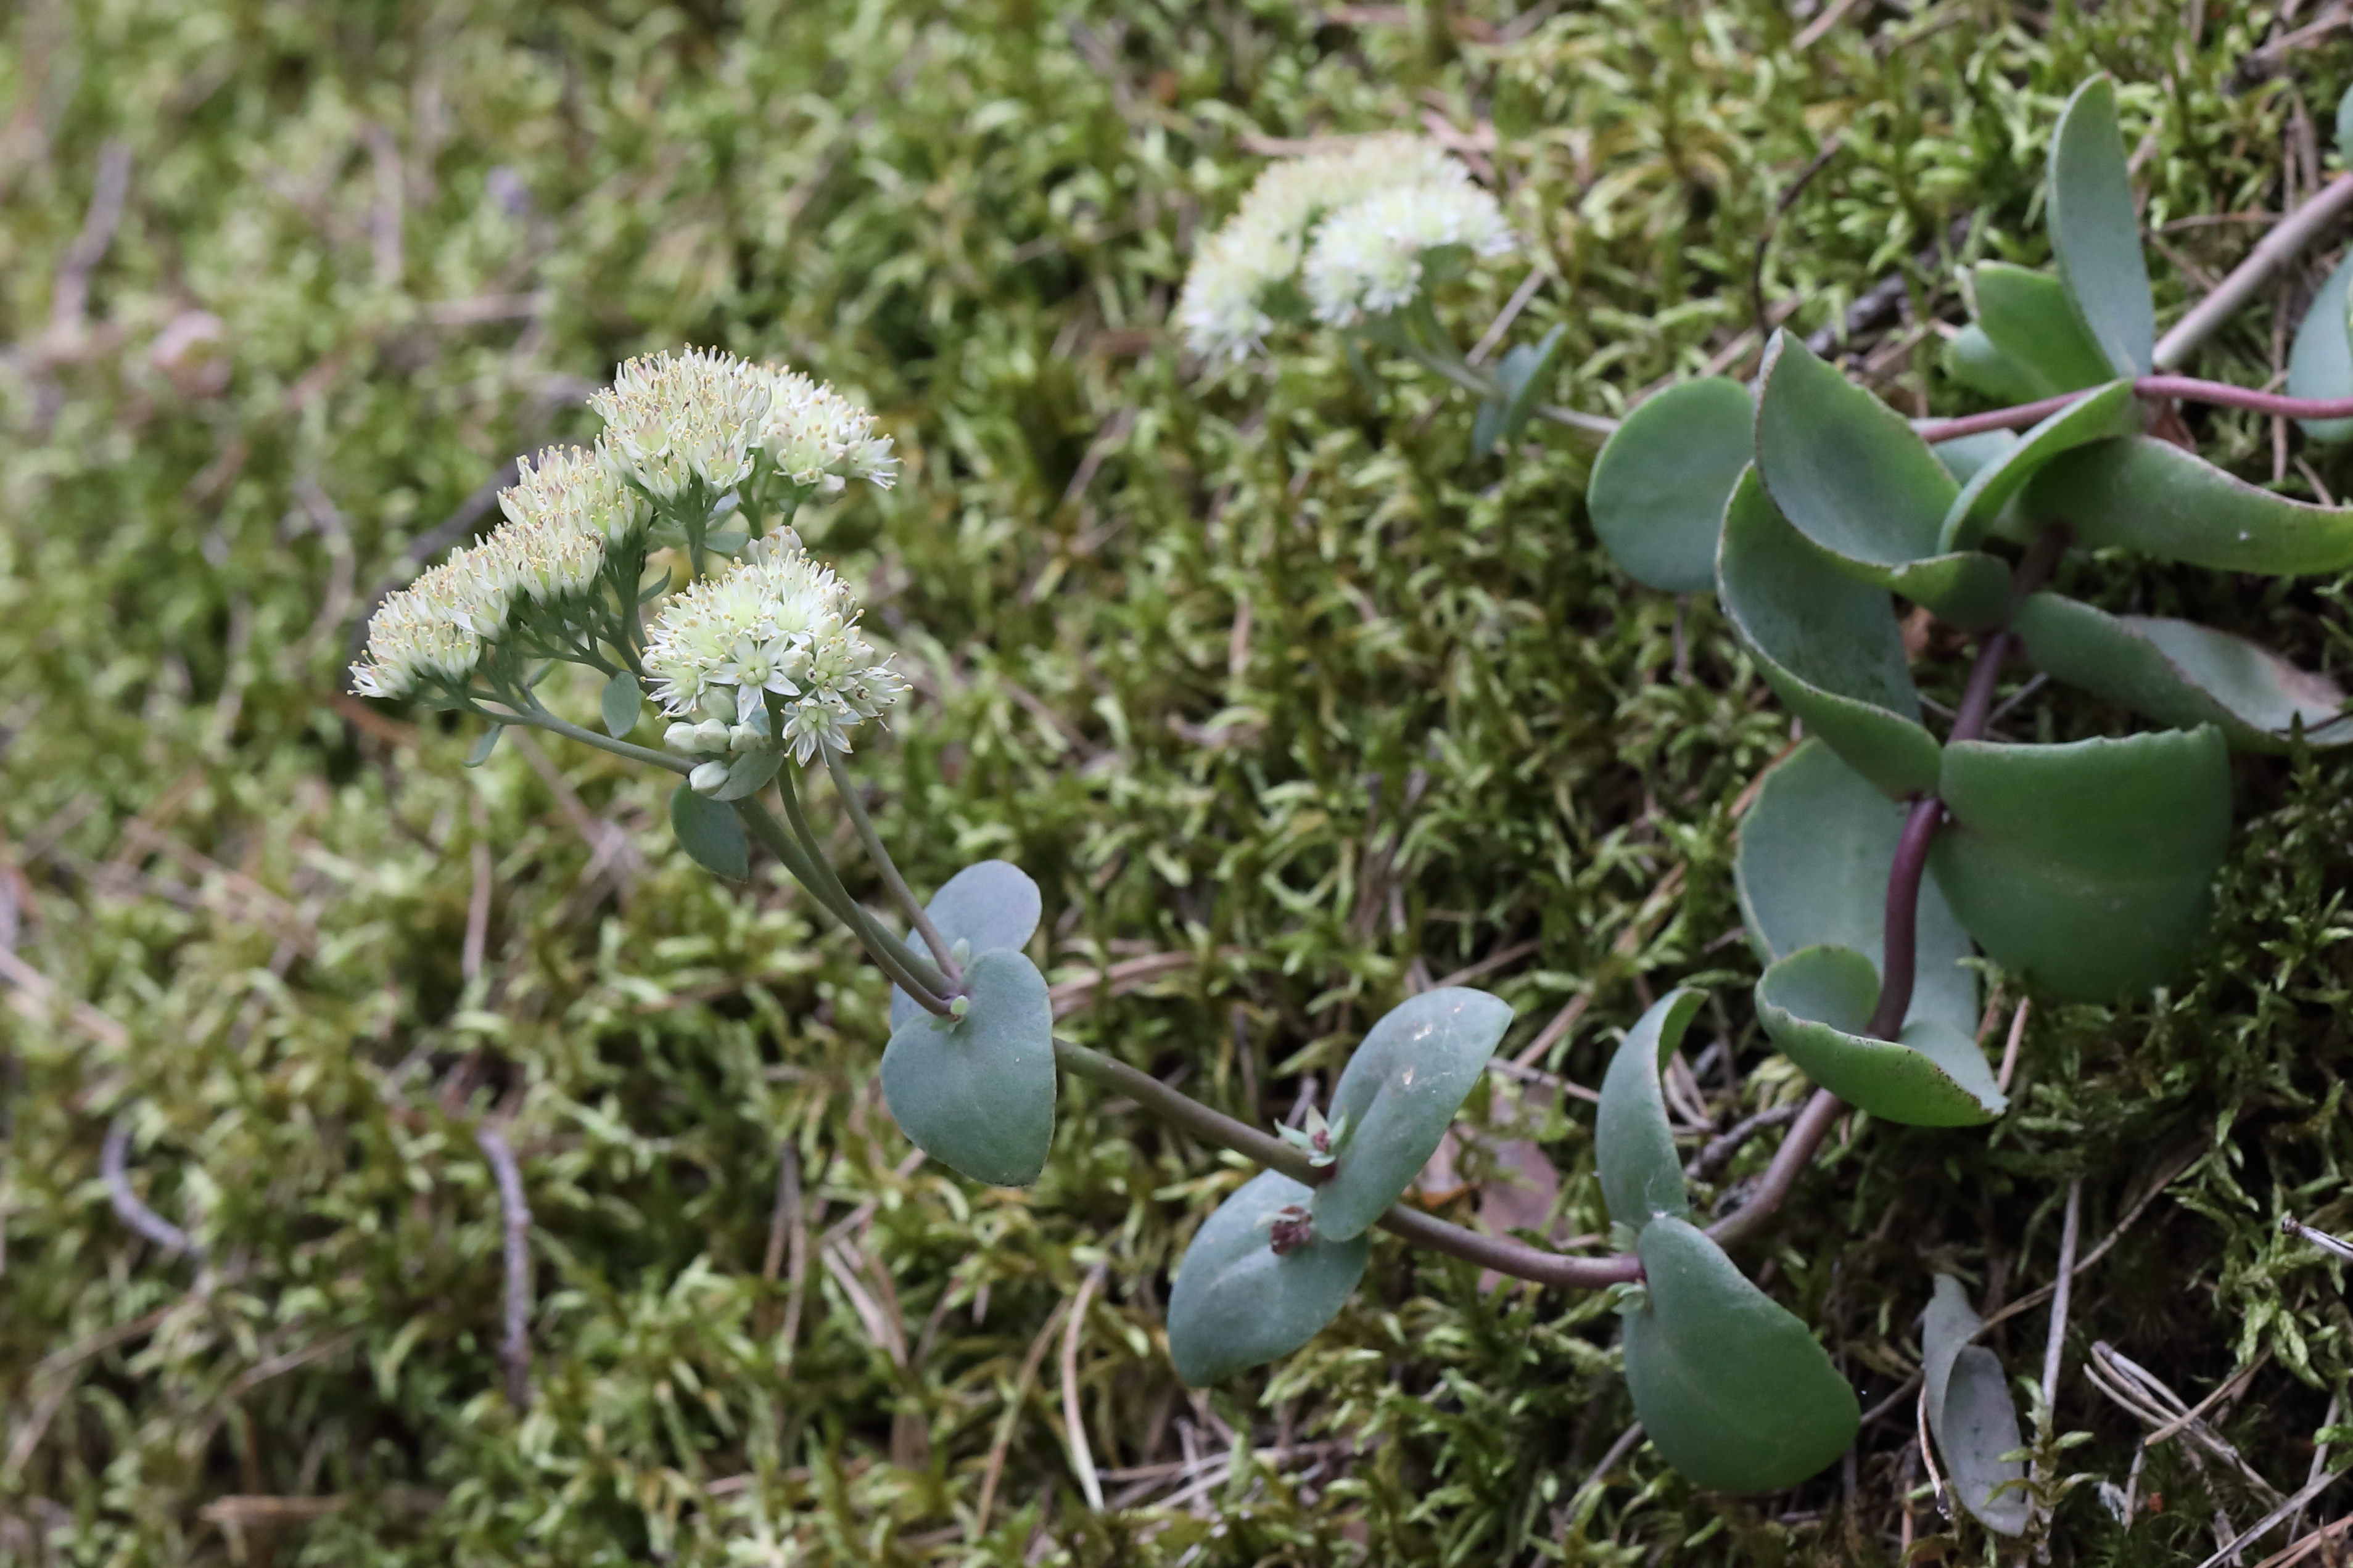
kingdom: Plantae
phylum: Tracheophyta
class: Magnoliopsida
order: Saxifragales
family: Crassulaceae
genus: Hylotelephium
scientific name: Hylotelephium maximum
